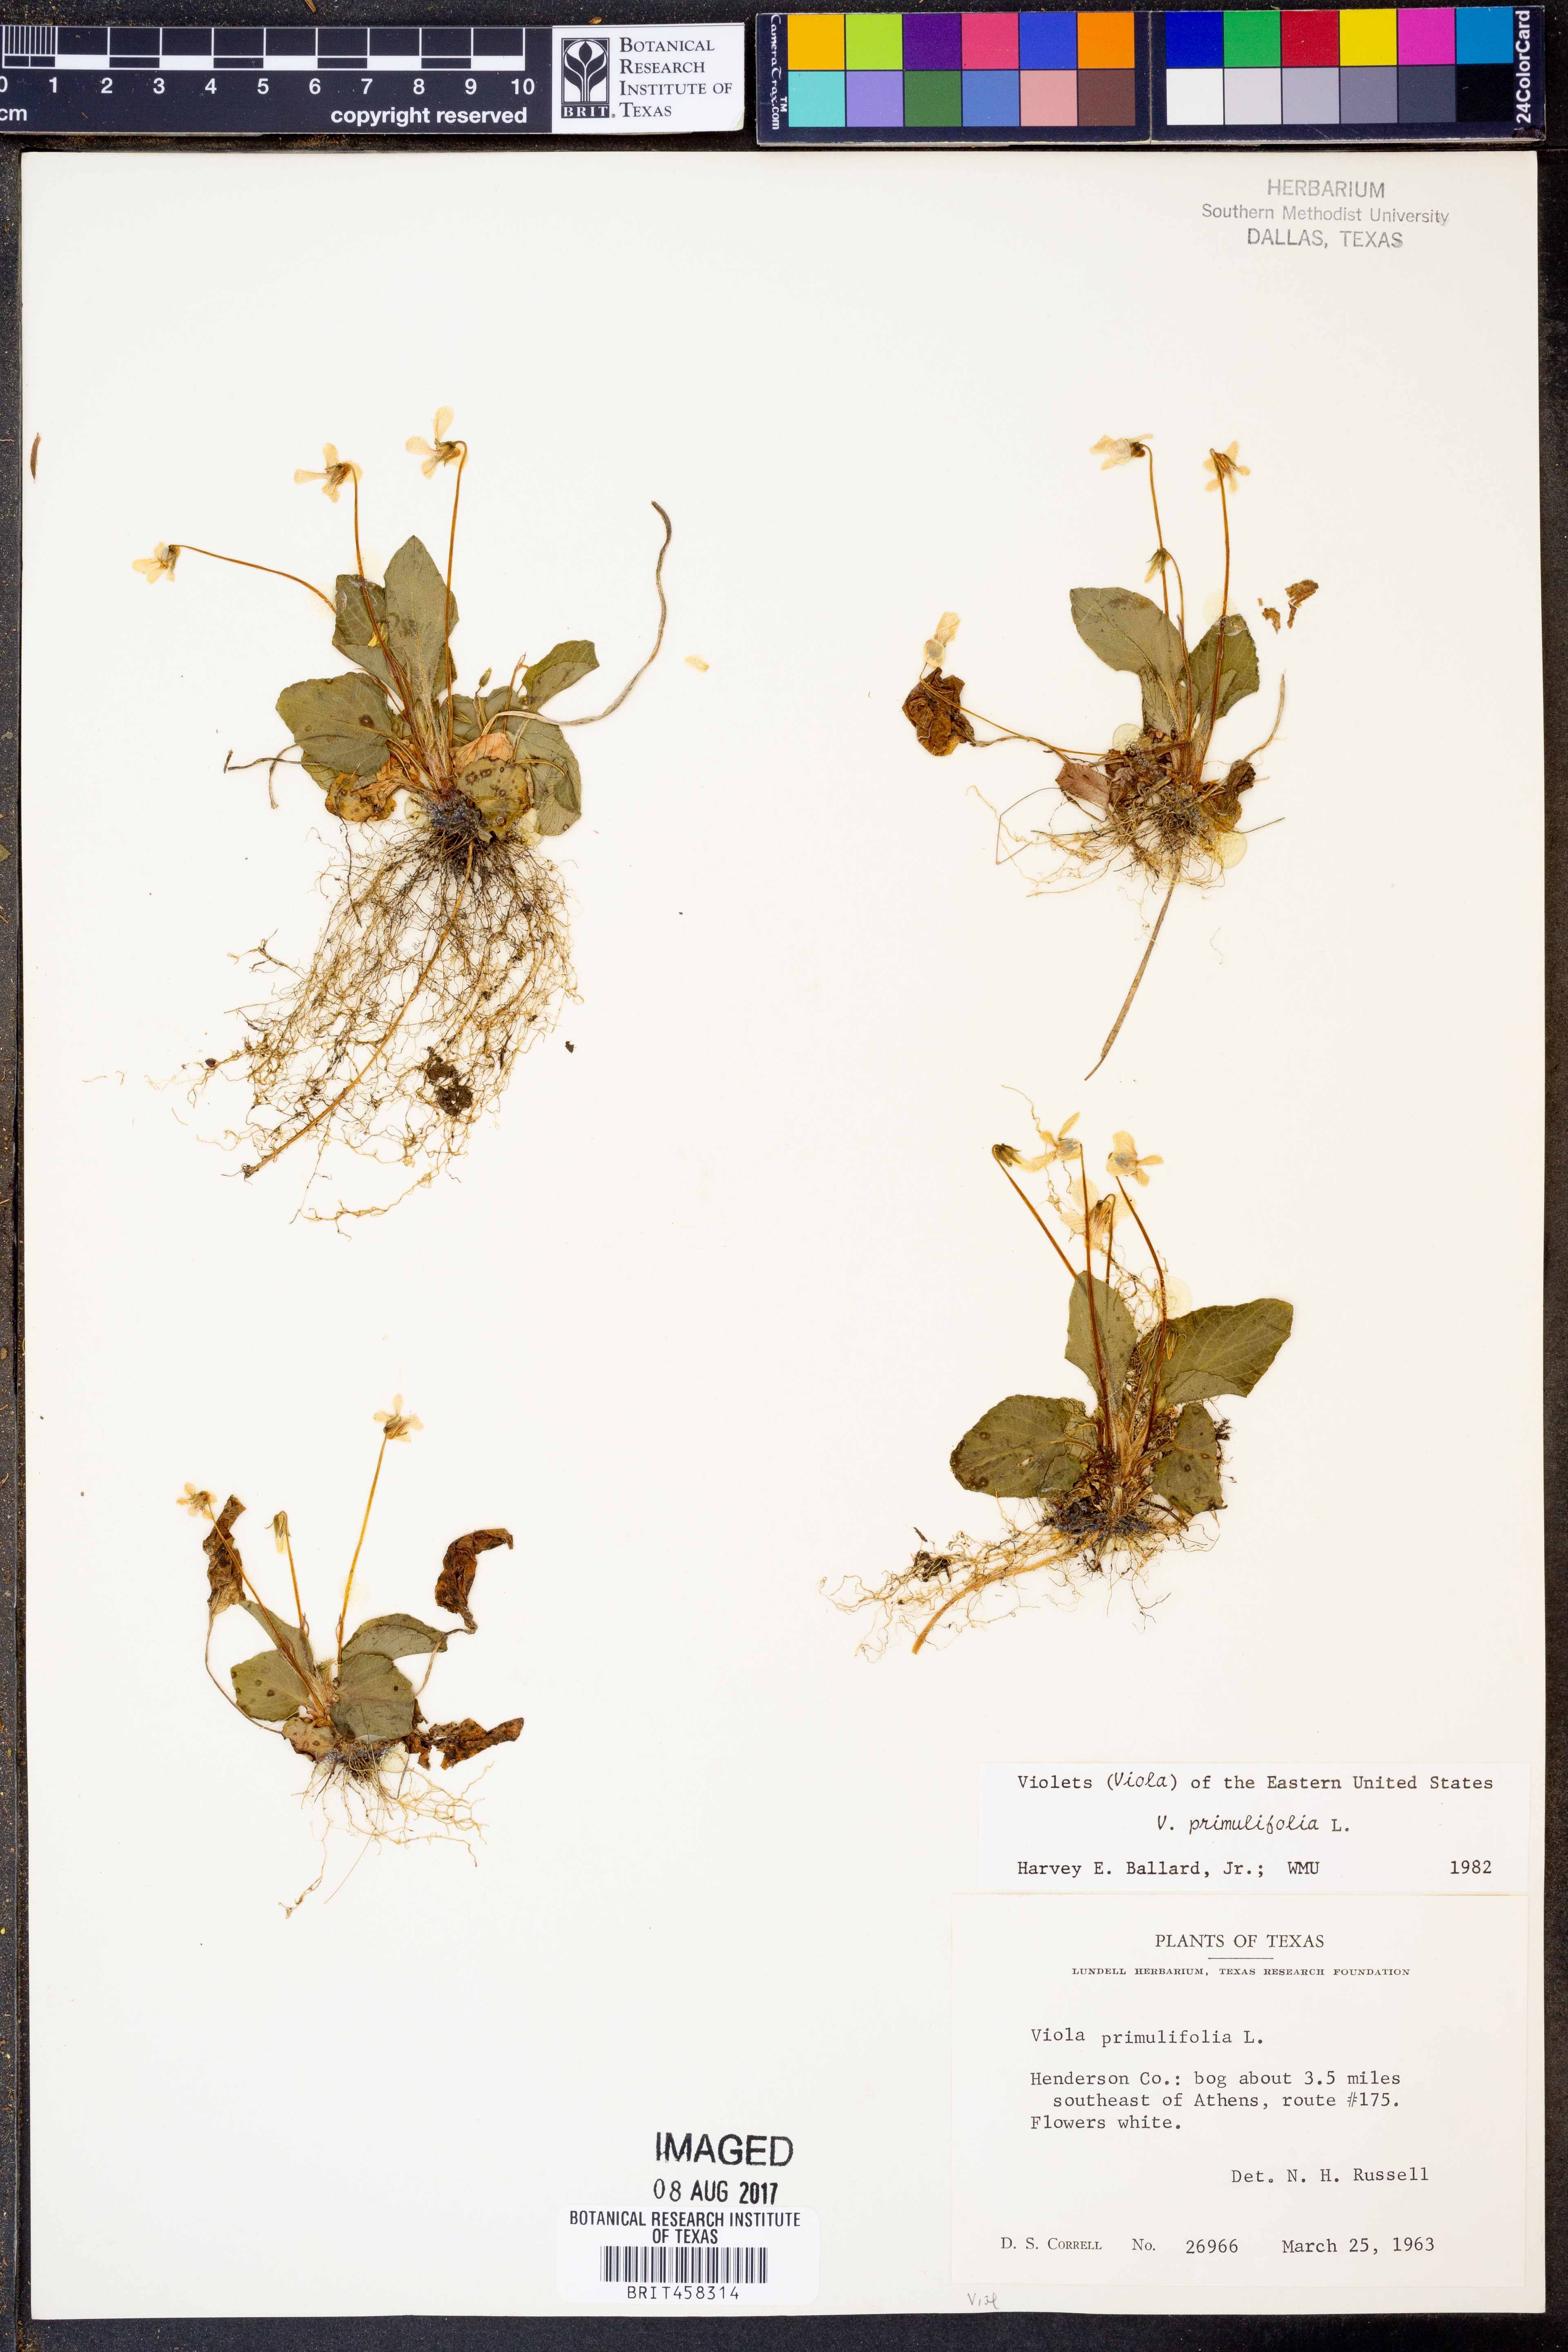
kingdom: Plantae
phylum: Tracheophyta
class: Magnoliopsida
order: Malpighiales
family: Violaceae
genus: Viola
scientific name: Viola primulifolia
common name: Primrose-leaf violet
